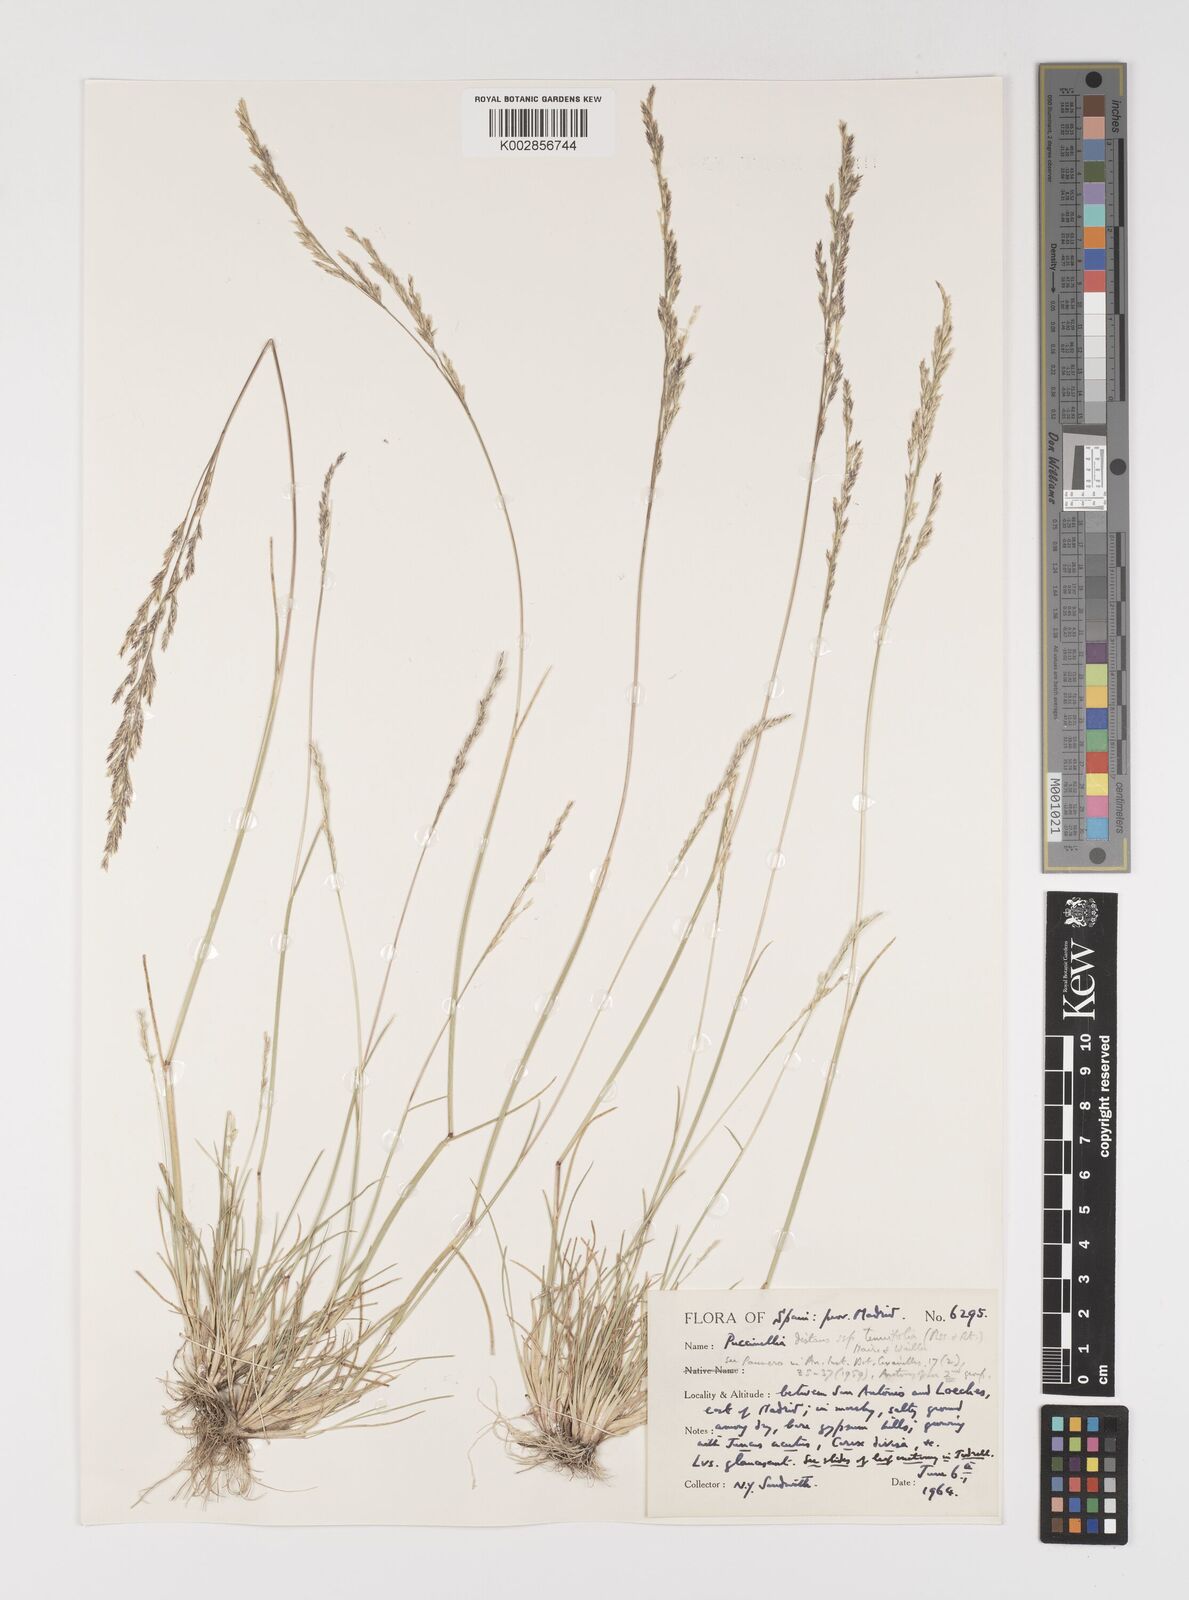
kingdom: Plantae
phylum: Tracheophyta
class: Liliopsida
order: Poales
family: Poaceae
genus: Puccinellia
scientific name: Puccinellia
